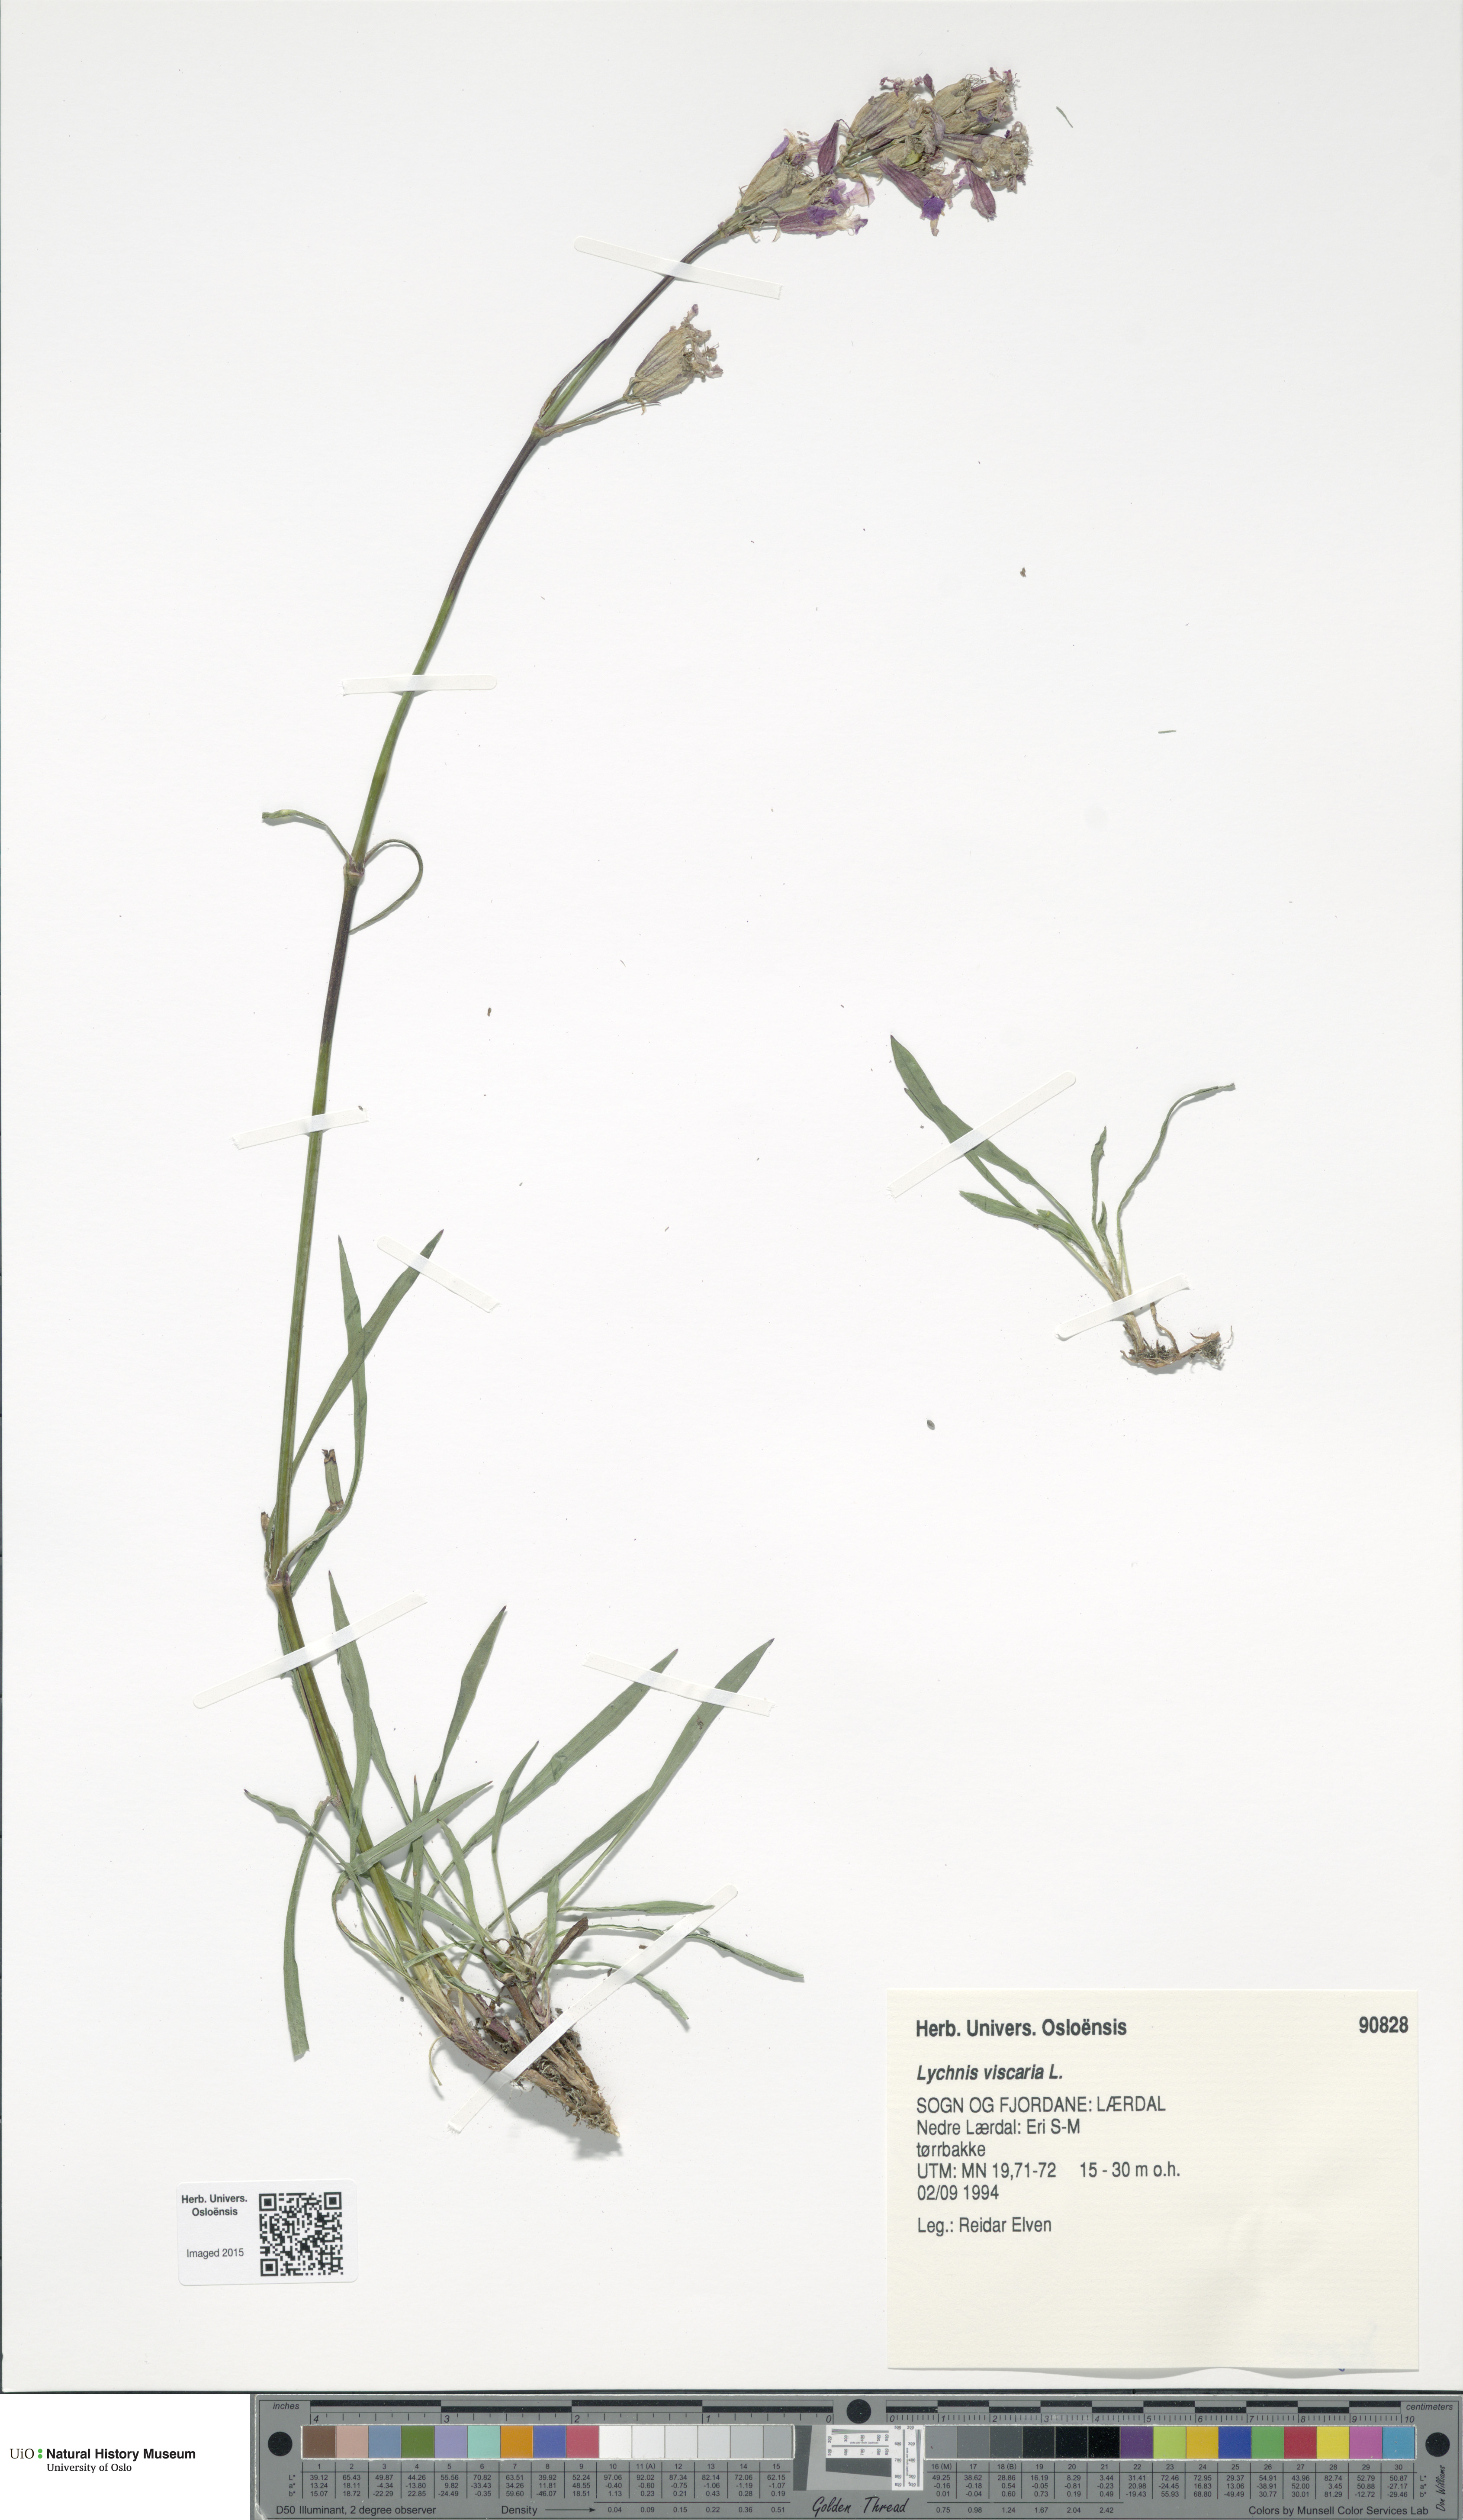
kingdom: Plantae
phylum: Tracheophyta
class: Magnoliopsida
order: Caryophyllales
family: Caryophyllaceae
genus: Viscaria
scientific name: Viscaria vulgaris
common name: Clammy campion
